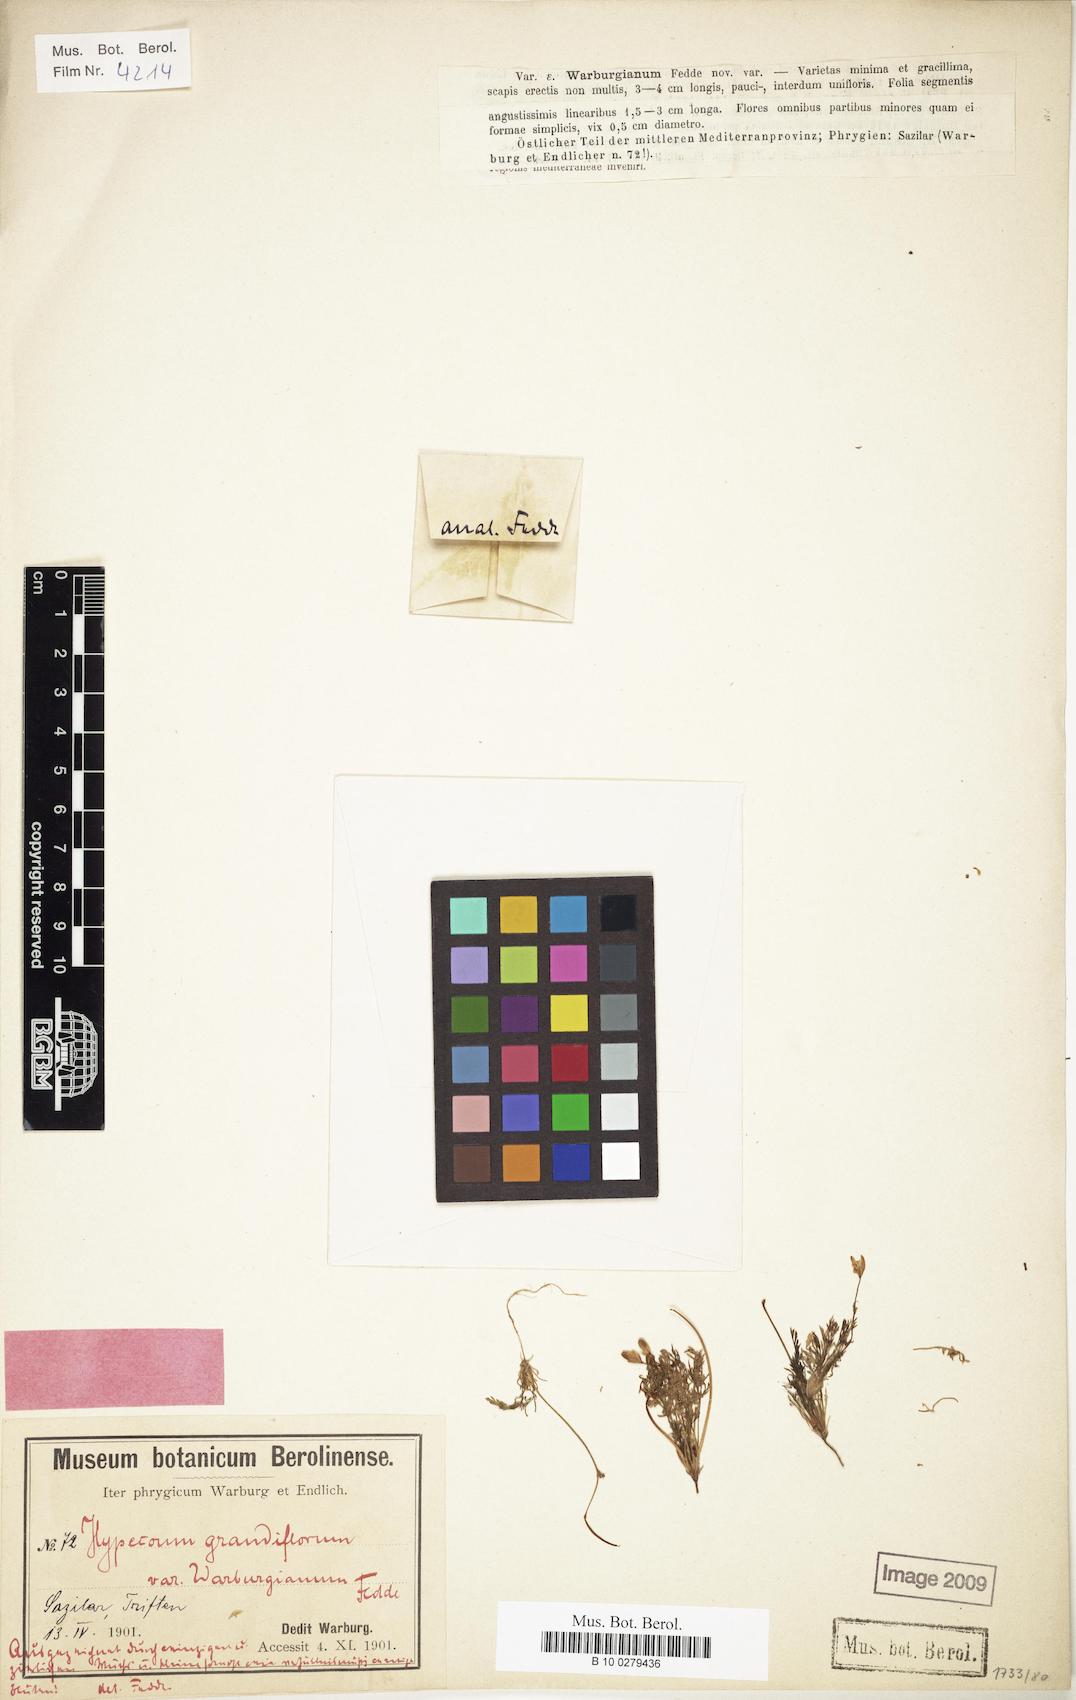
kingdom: Plantae
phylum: Tracheophyta
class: Magnoliopsida
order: Ranunculales
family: Papaveraceae
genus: Hypecoum
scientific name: Hypecoum imberbe
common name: Sicklefruit hypecoum
